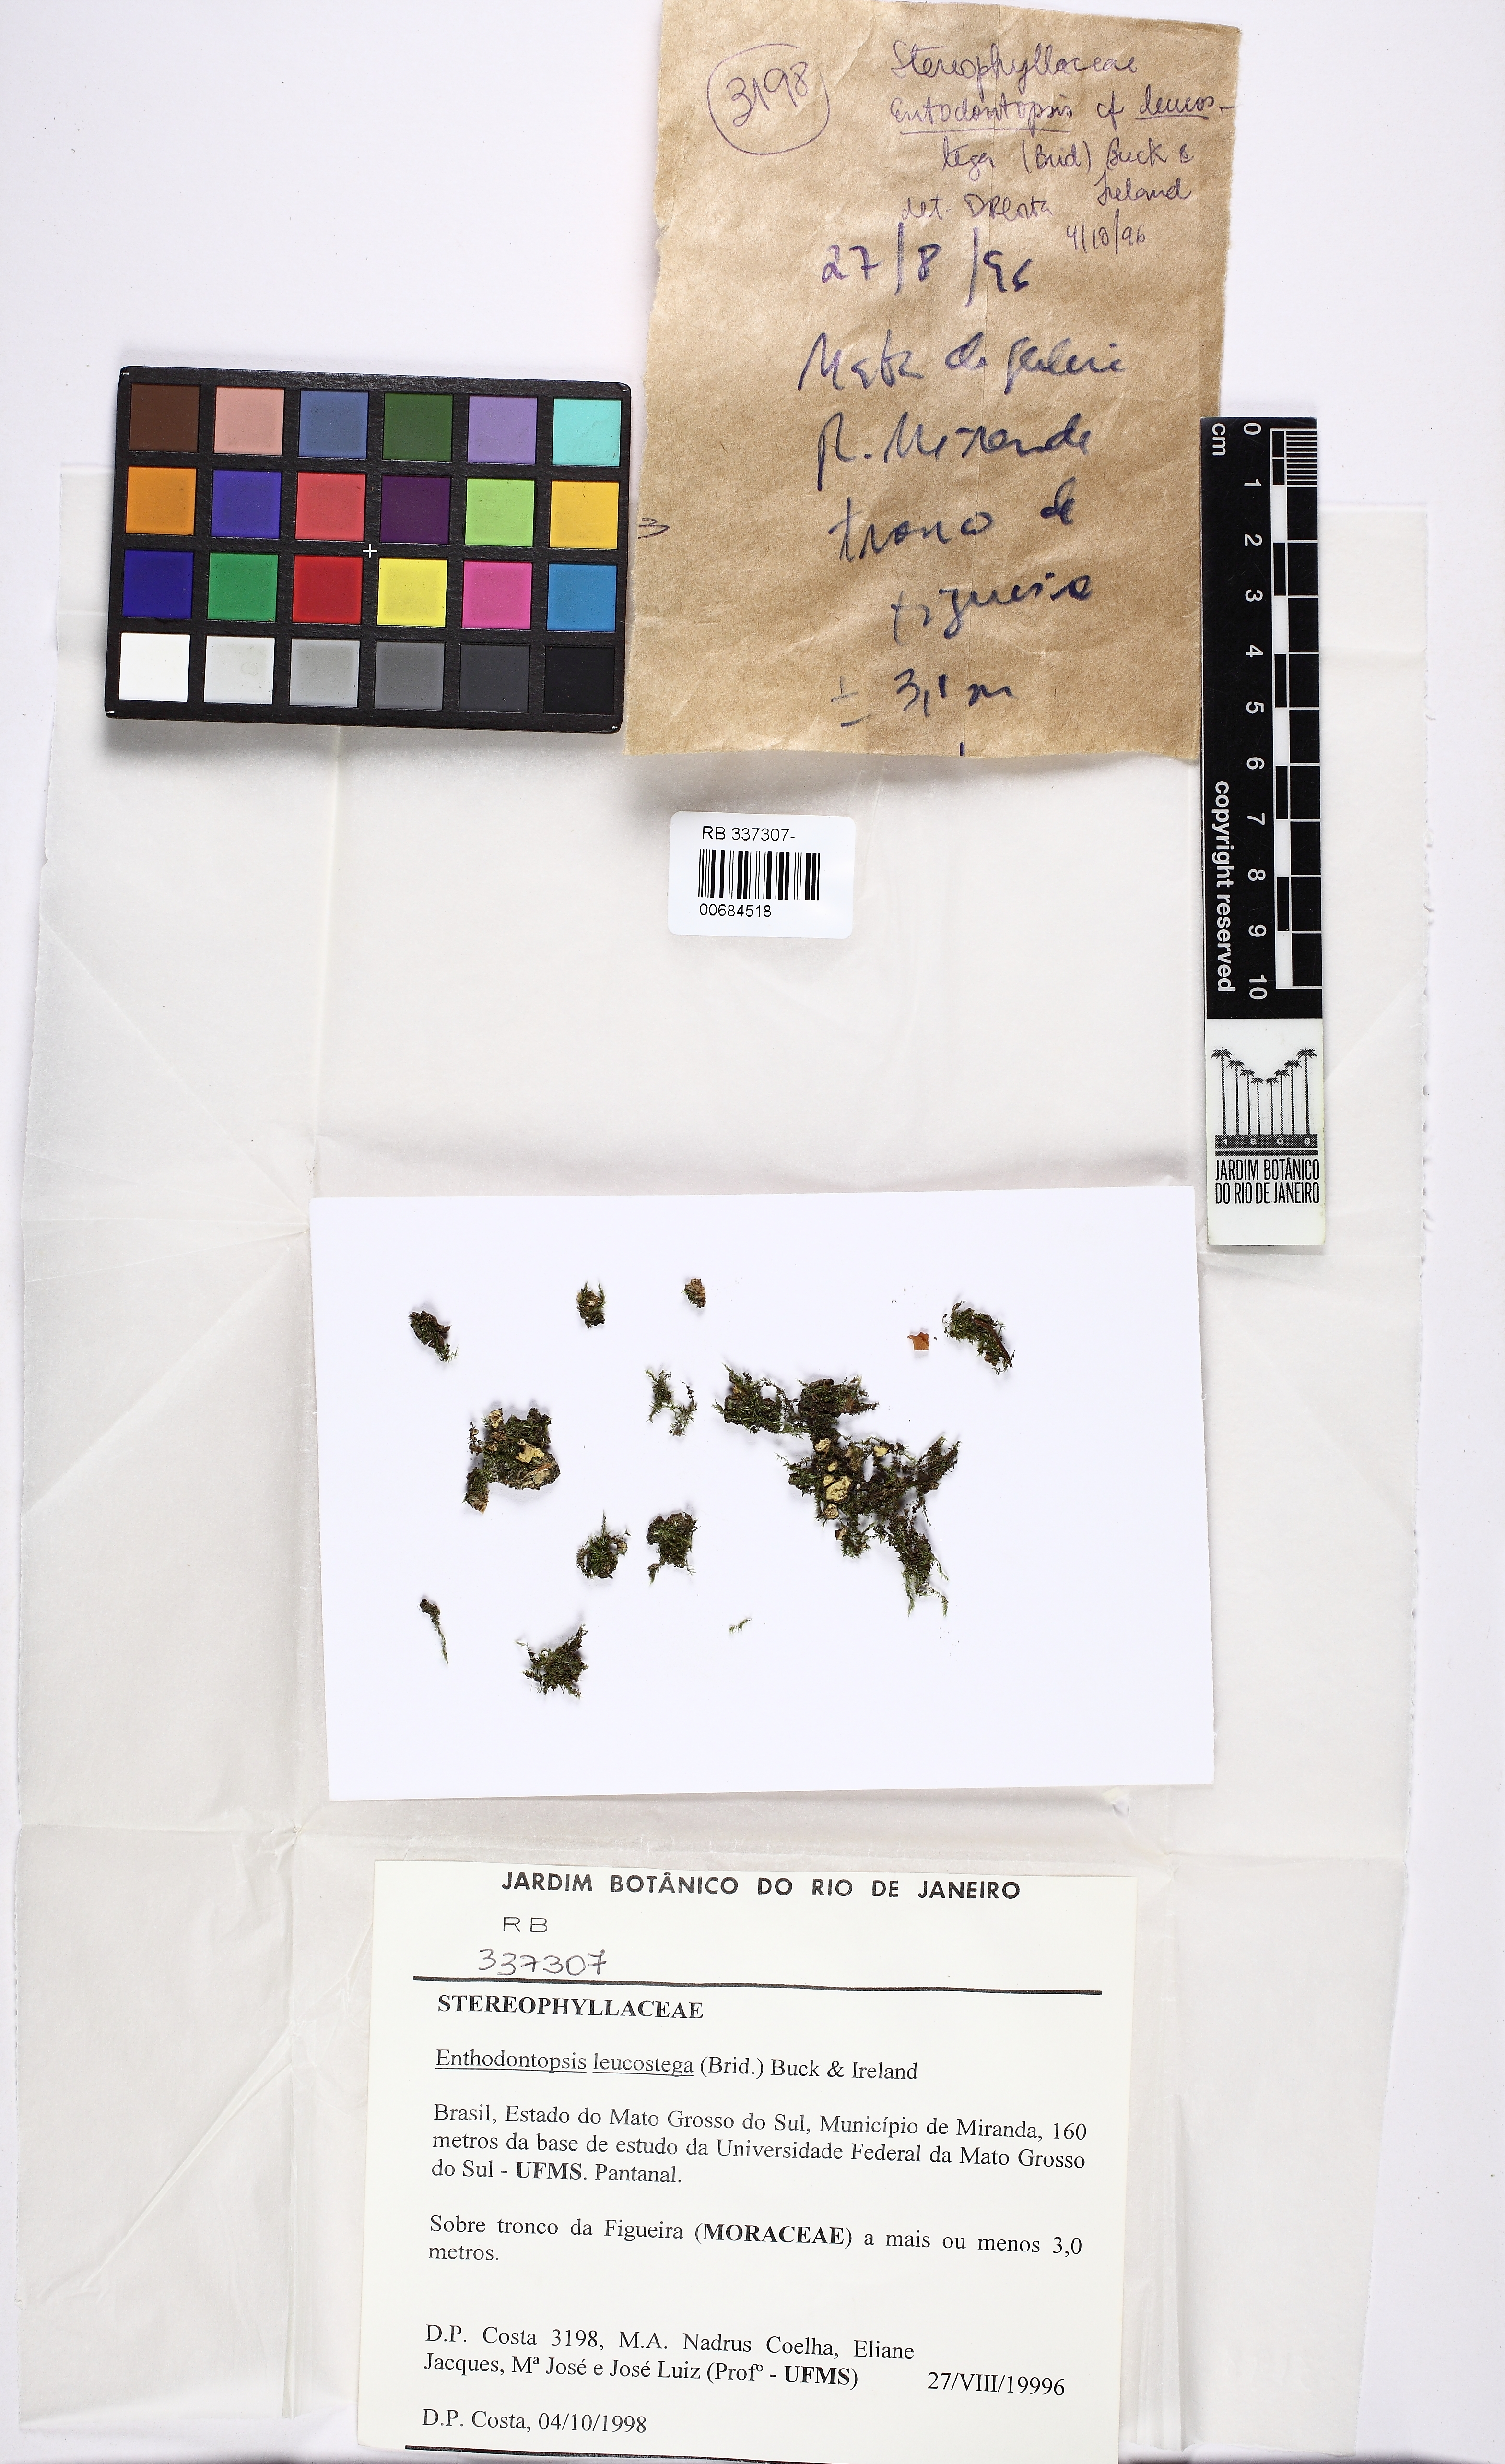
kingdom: Plantae
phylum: Bryophyta
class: Bryopsida
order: Hypnales
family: Stereophyllaceae
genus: Entodontopsis
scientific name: Entodontopsis leucostega
